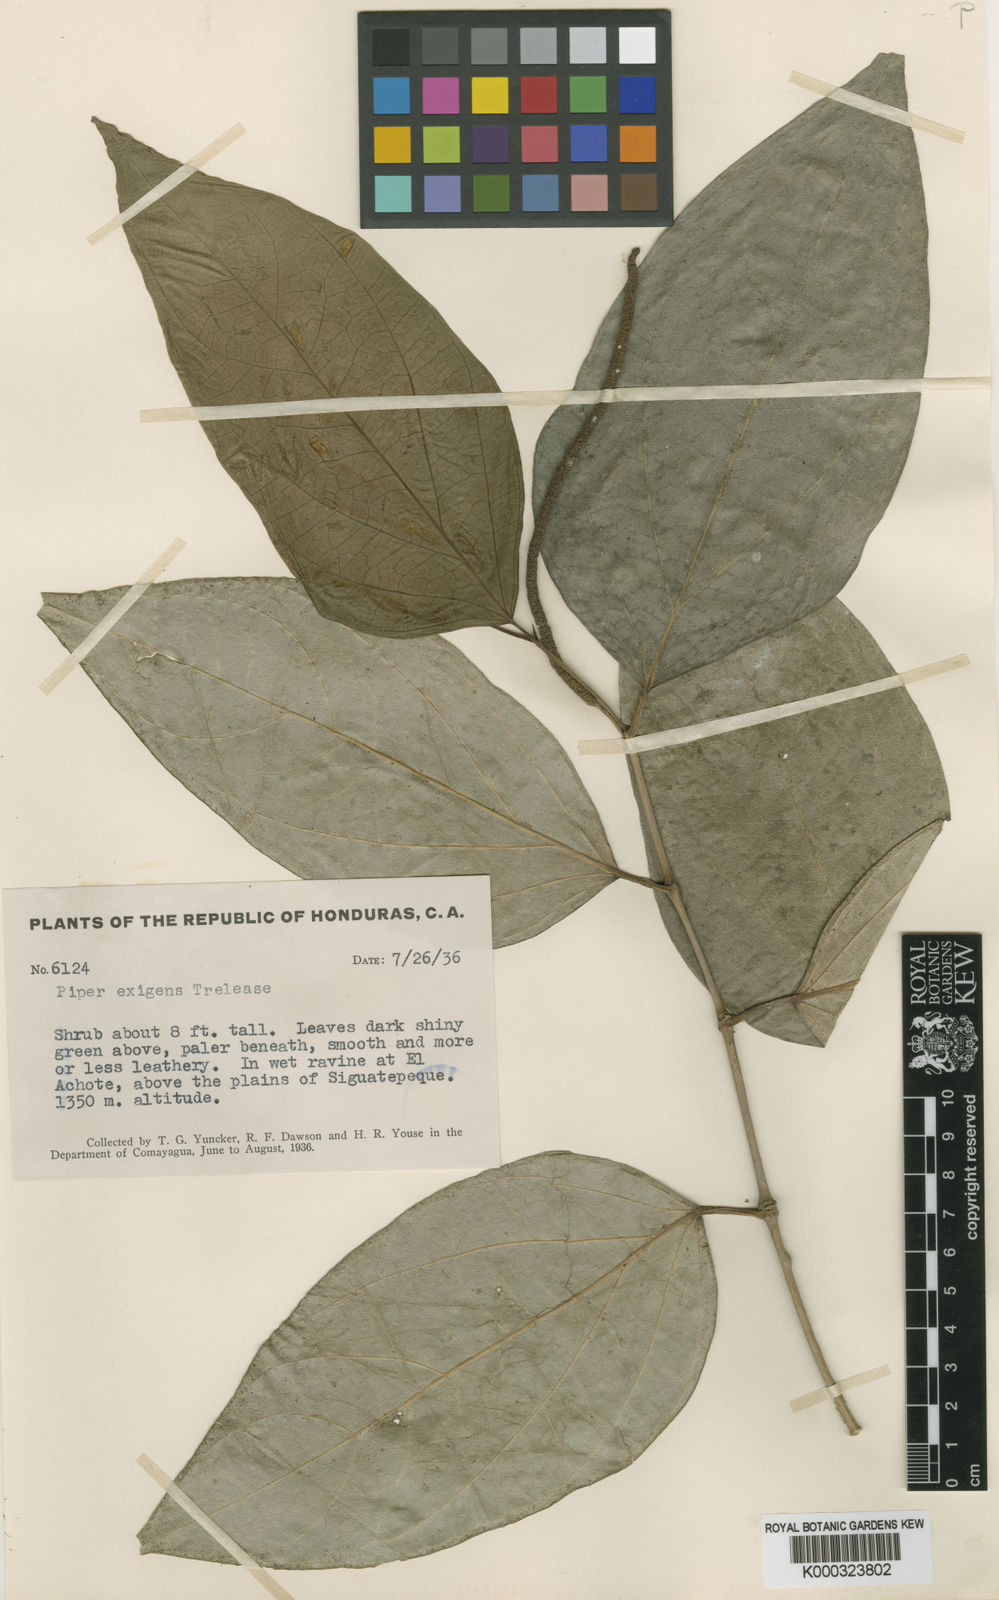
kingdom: Plantae
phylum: Tracheophyta
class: Magnoliopsida
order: Piperales
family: Piperaceae
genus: Piper
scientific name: Piper schiedeanum
